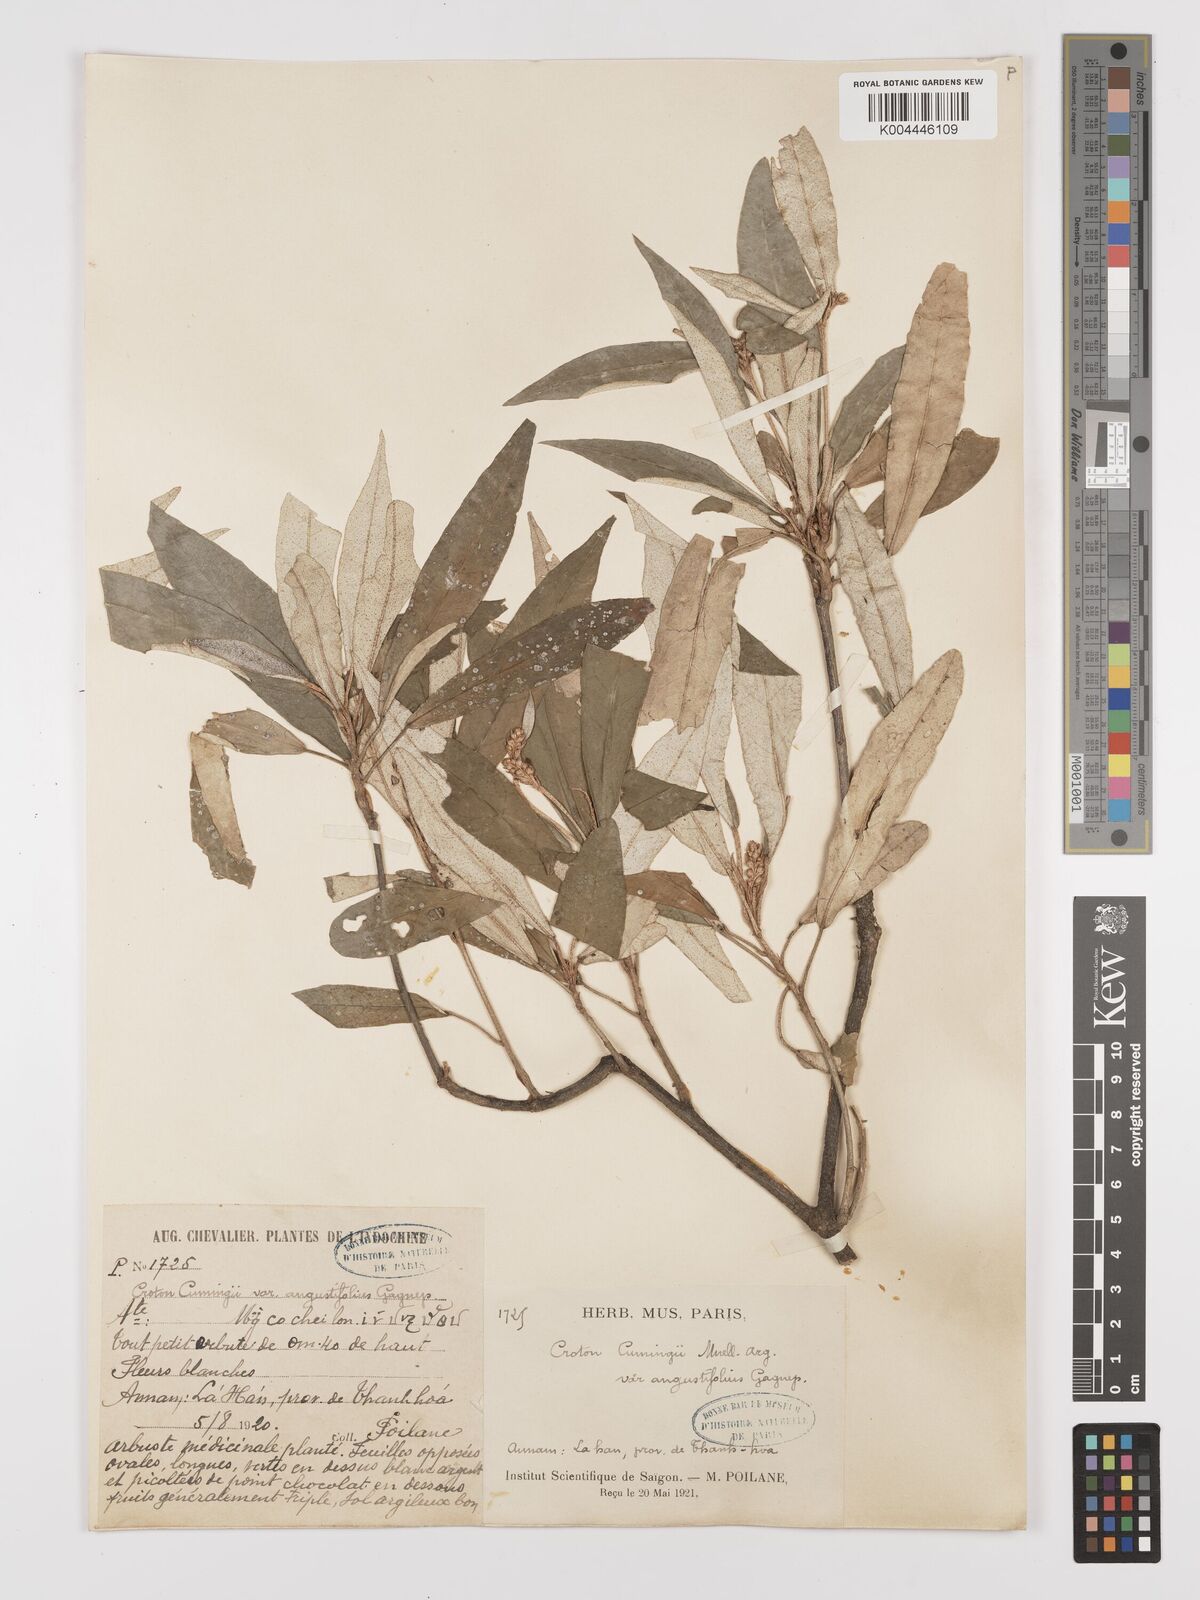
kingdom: Plantae
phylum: Tracheophyta
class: Magnoliopsida
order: Malpighiales
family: Euphorbiaceae
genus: Croton
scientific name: Croton cascarilloides
